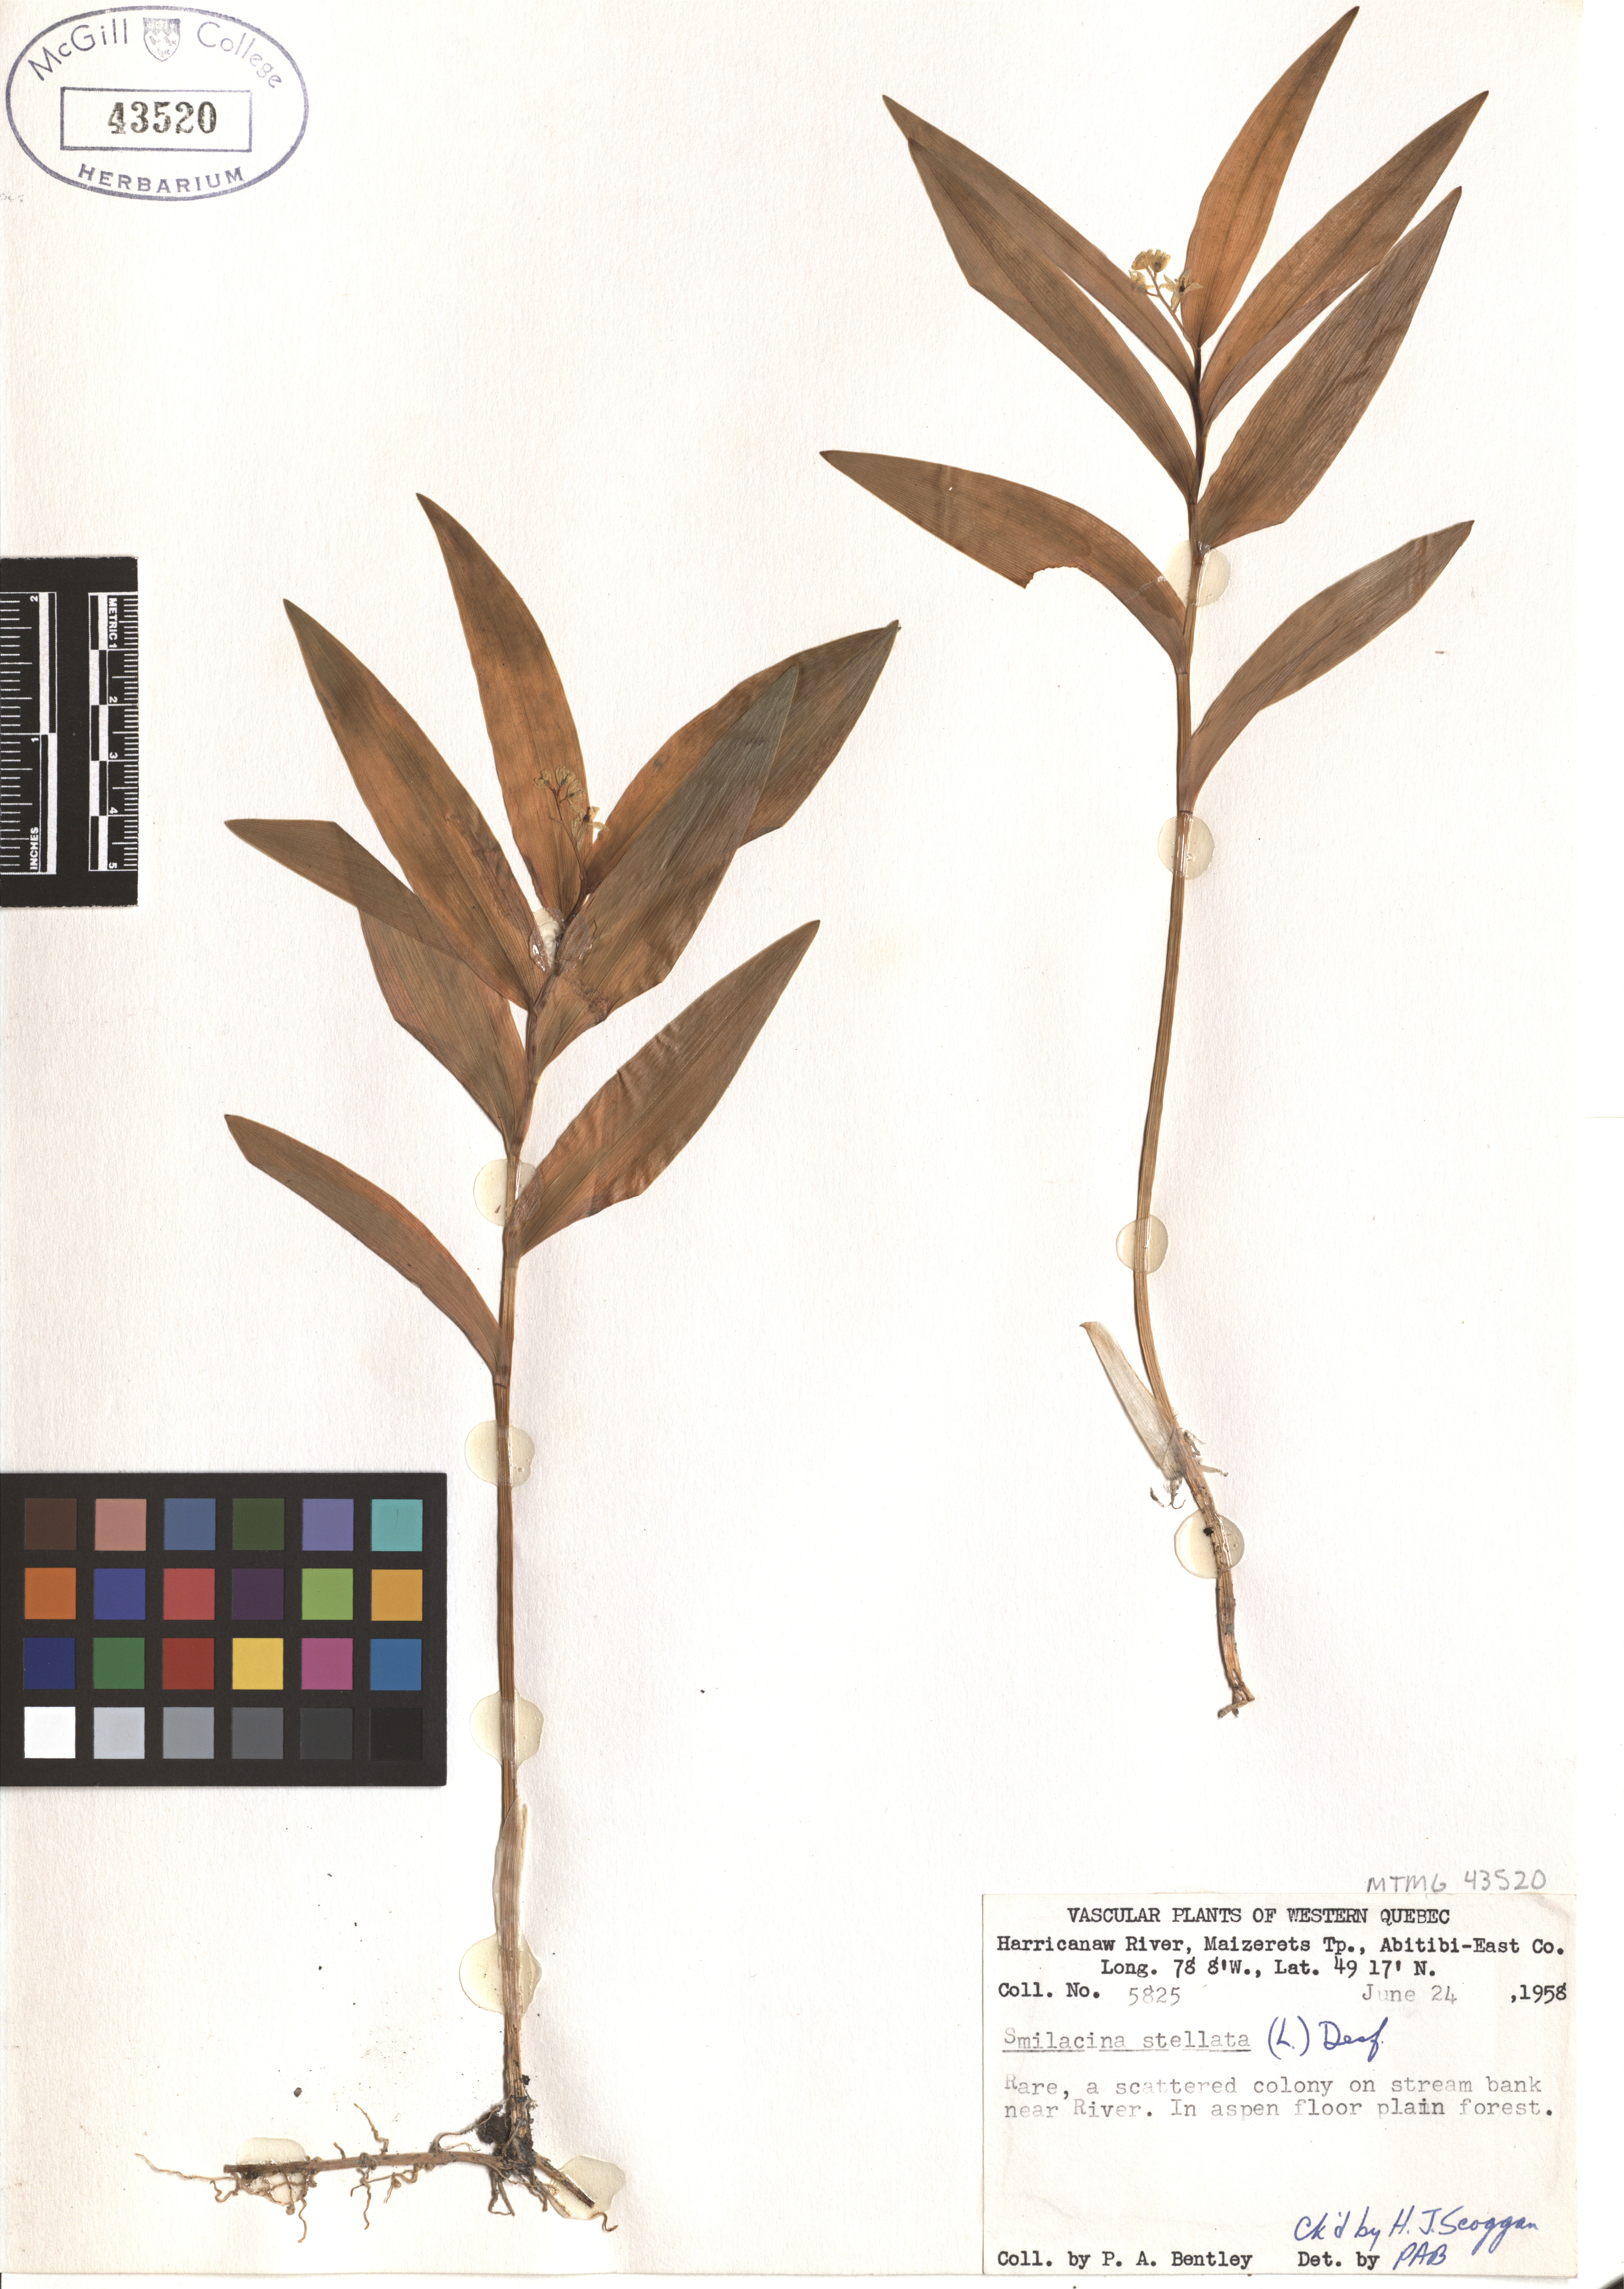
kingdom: Plantae
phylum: Tracheophyta
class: Liliopsida
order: Asparagales
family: Asparagaceae
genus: Maianthemum
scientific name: Maianthemum stellatum
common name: Little false solomon's seal
